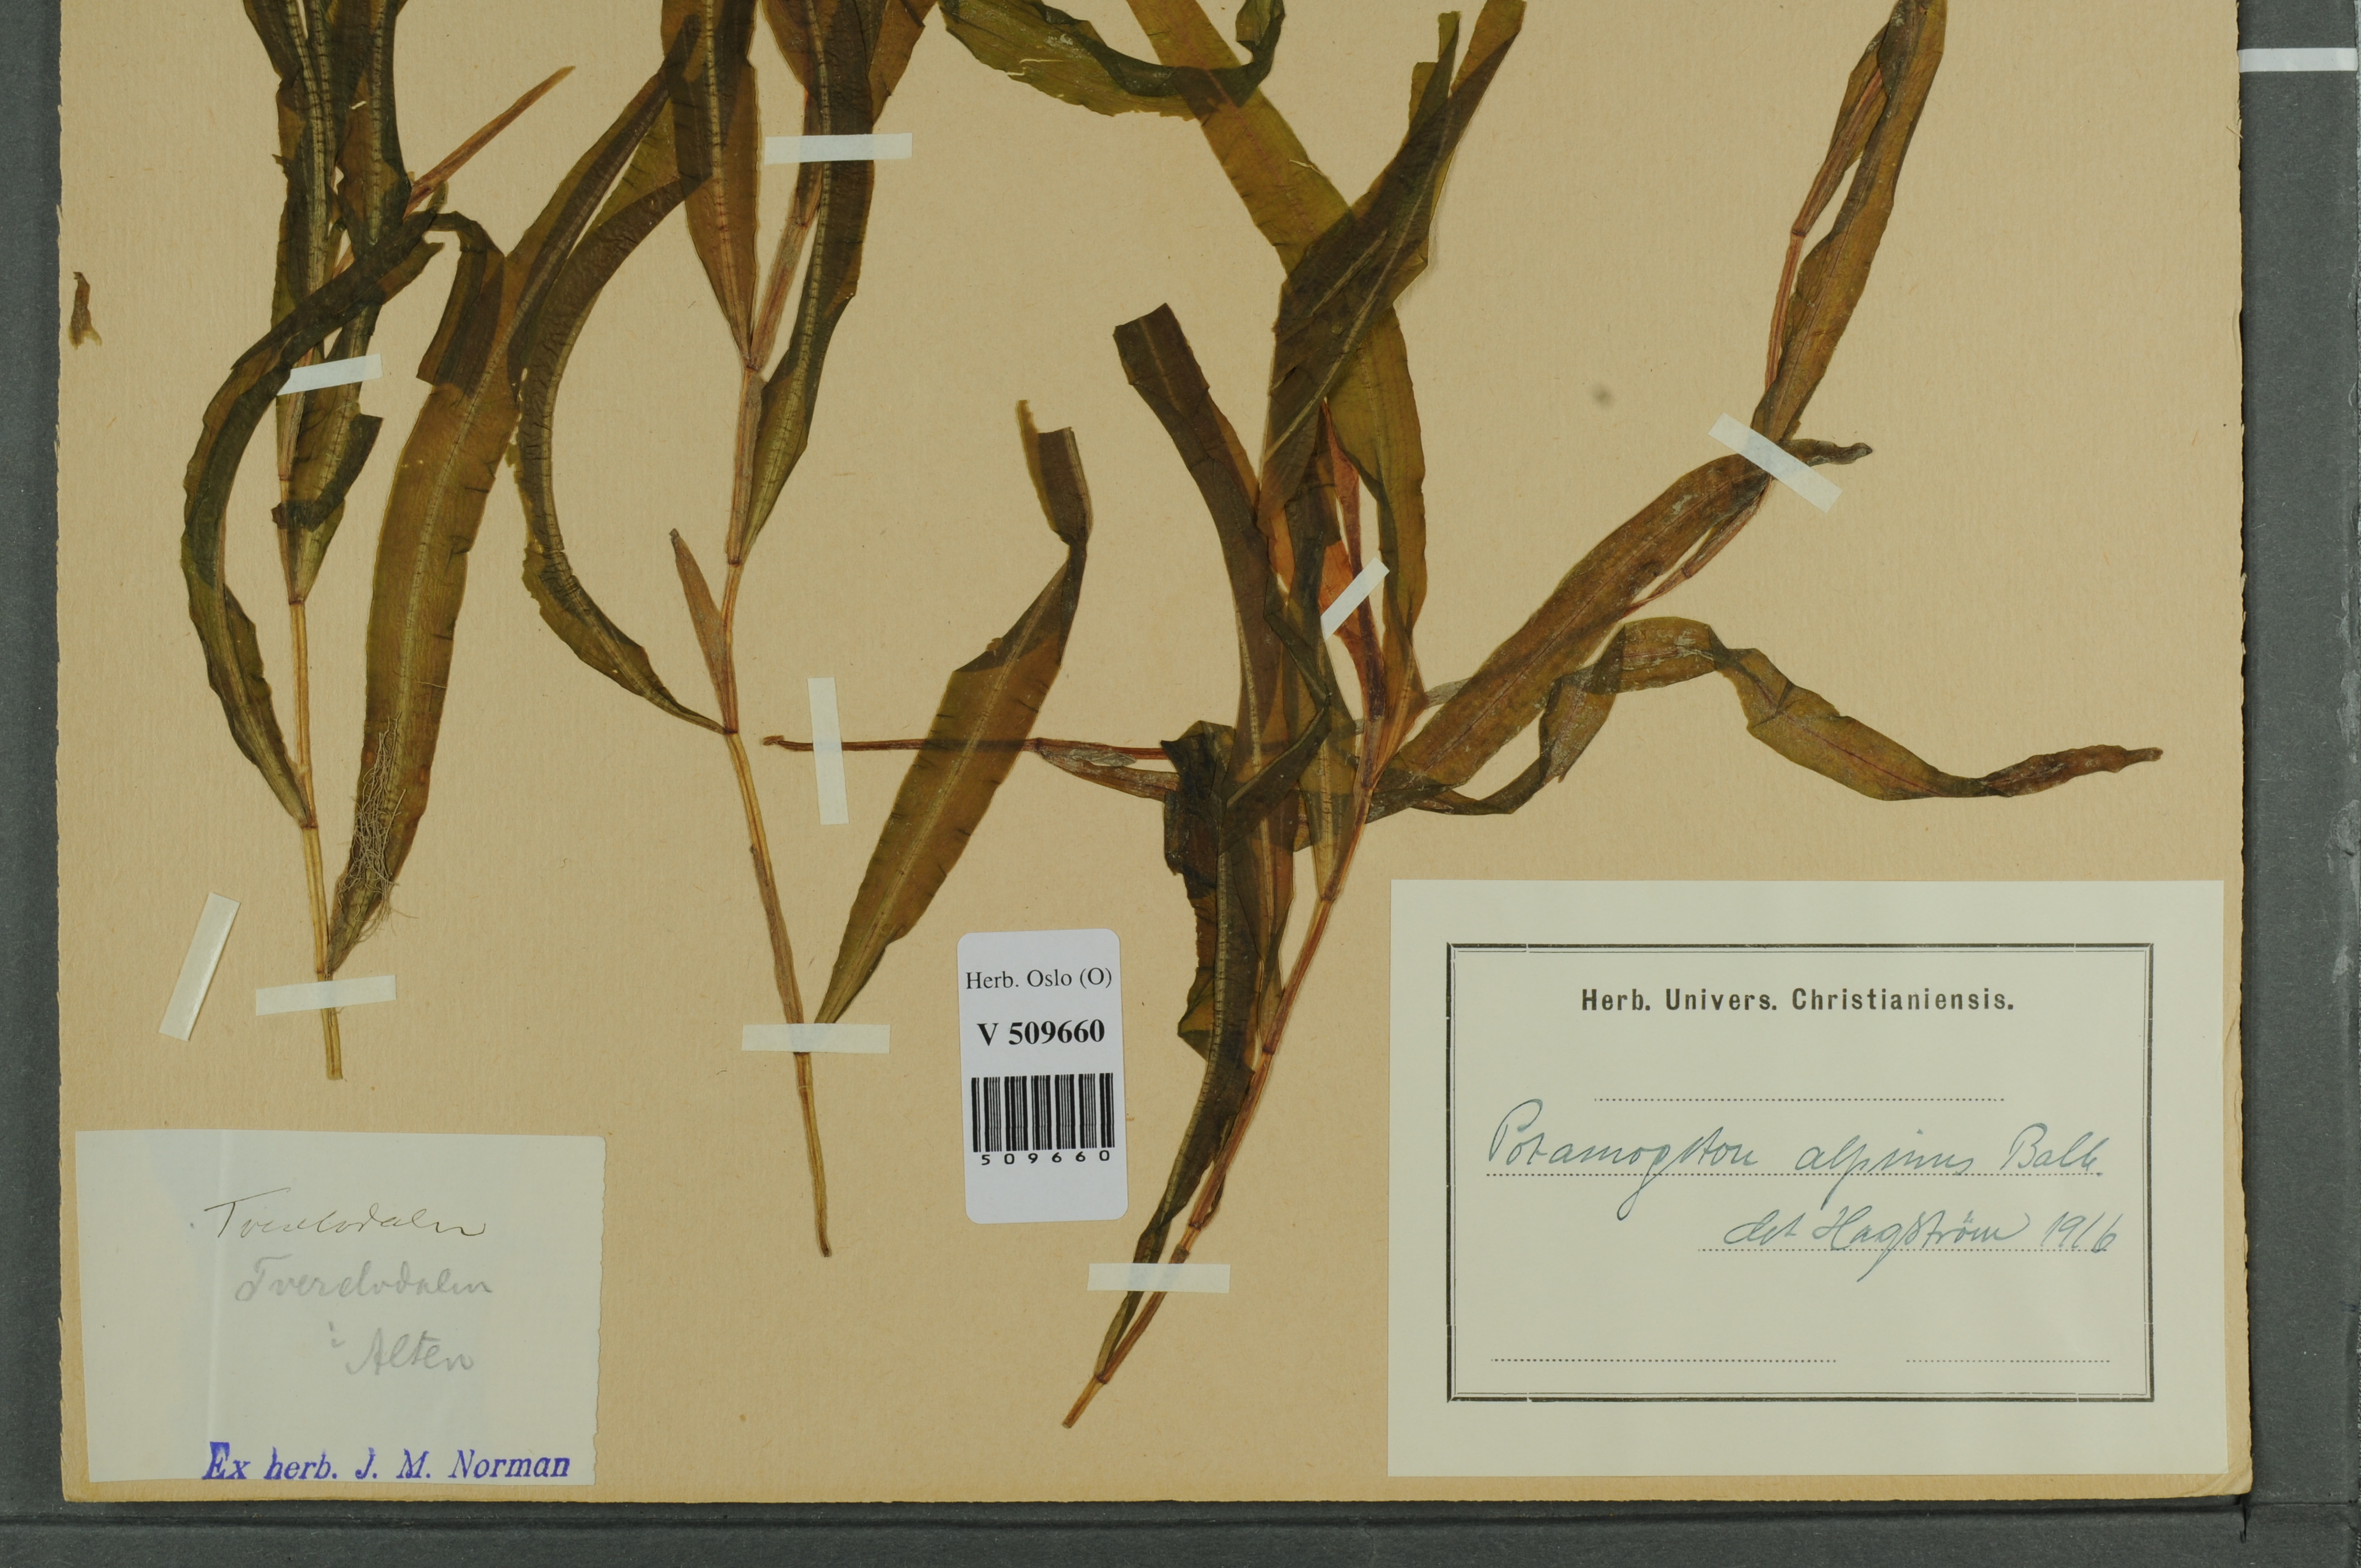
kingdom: Plantae
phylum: Tracheophyta
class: Liliopsida
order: Alismatales
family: Potamogetonaceae
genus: Potamogeton
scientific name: Potamogeton alpinus
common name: Red pondweed
